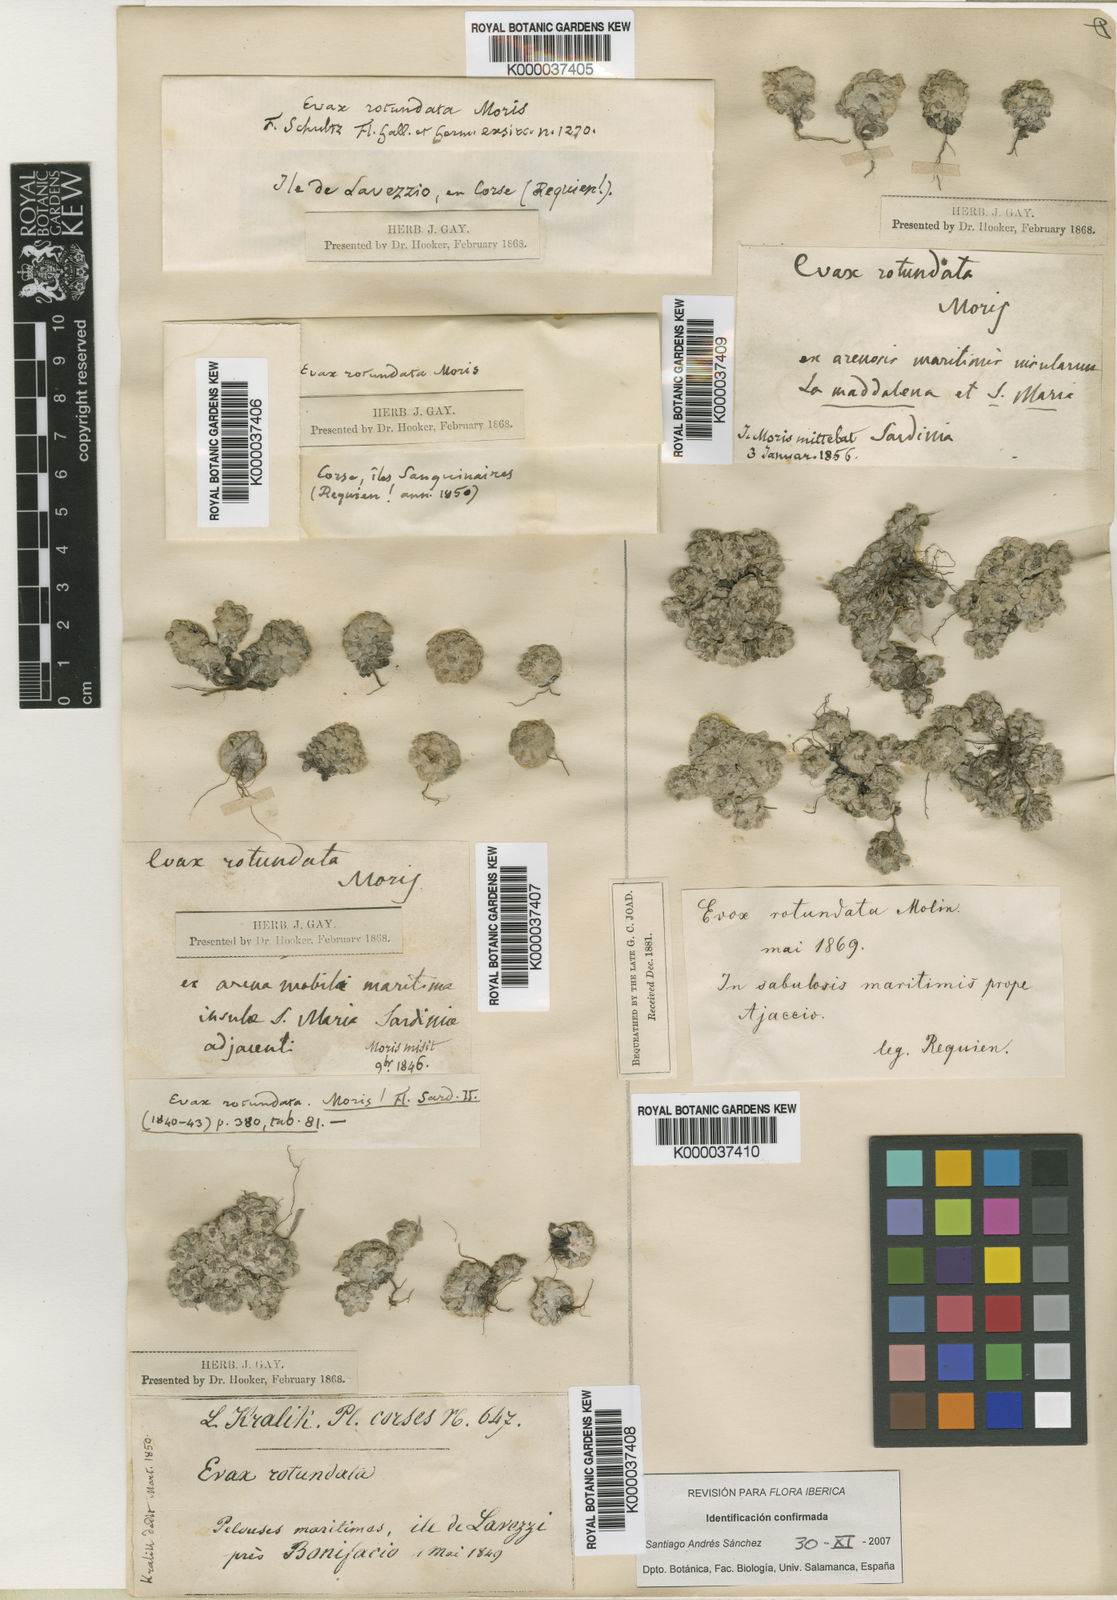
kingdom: Plantae
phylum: Tracheophyta
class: Magnoliopsida
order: Asterales
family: Asteraceae
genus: Filago
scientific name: Filago tyrrhenica
